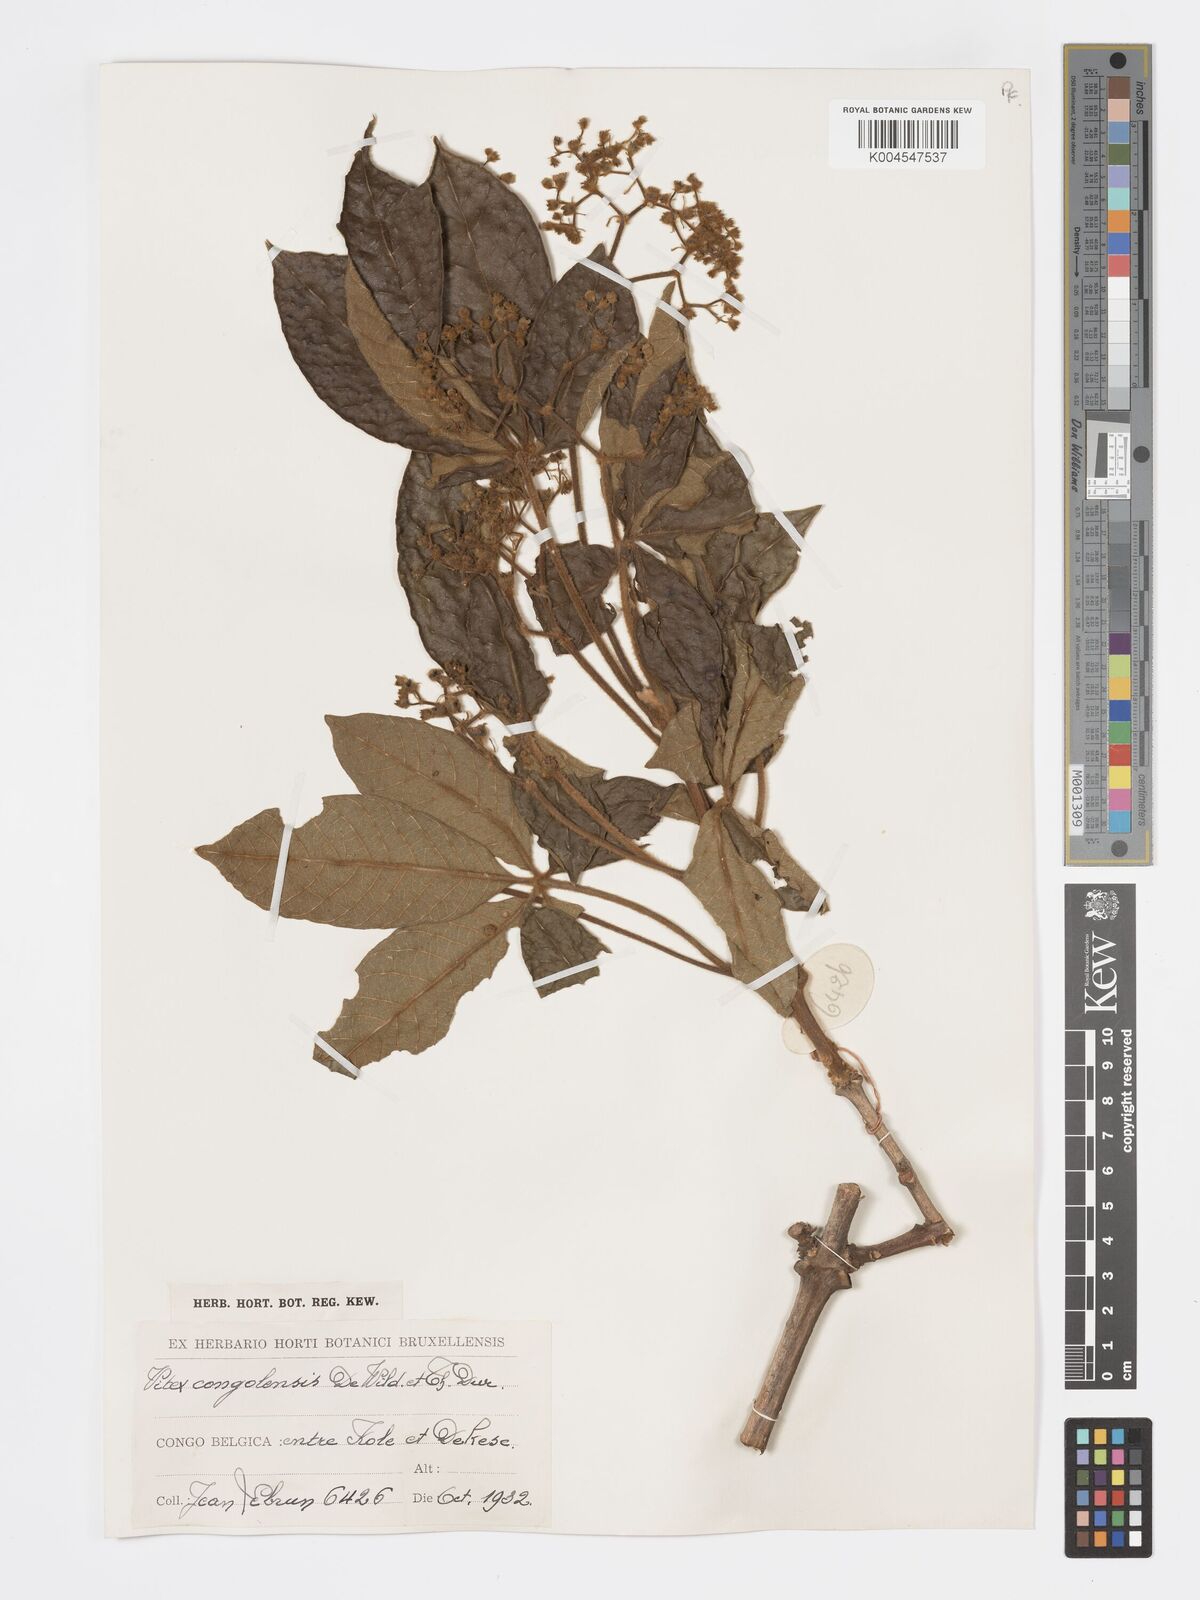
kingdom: Plantae
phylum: Tracheophyta
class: Magnoliopsida
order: Lamiales
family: Lamiaceae
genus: Vitex
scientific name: Vitex congolensis
